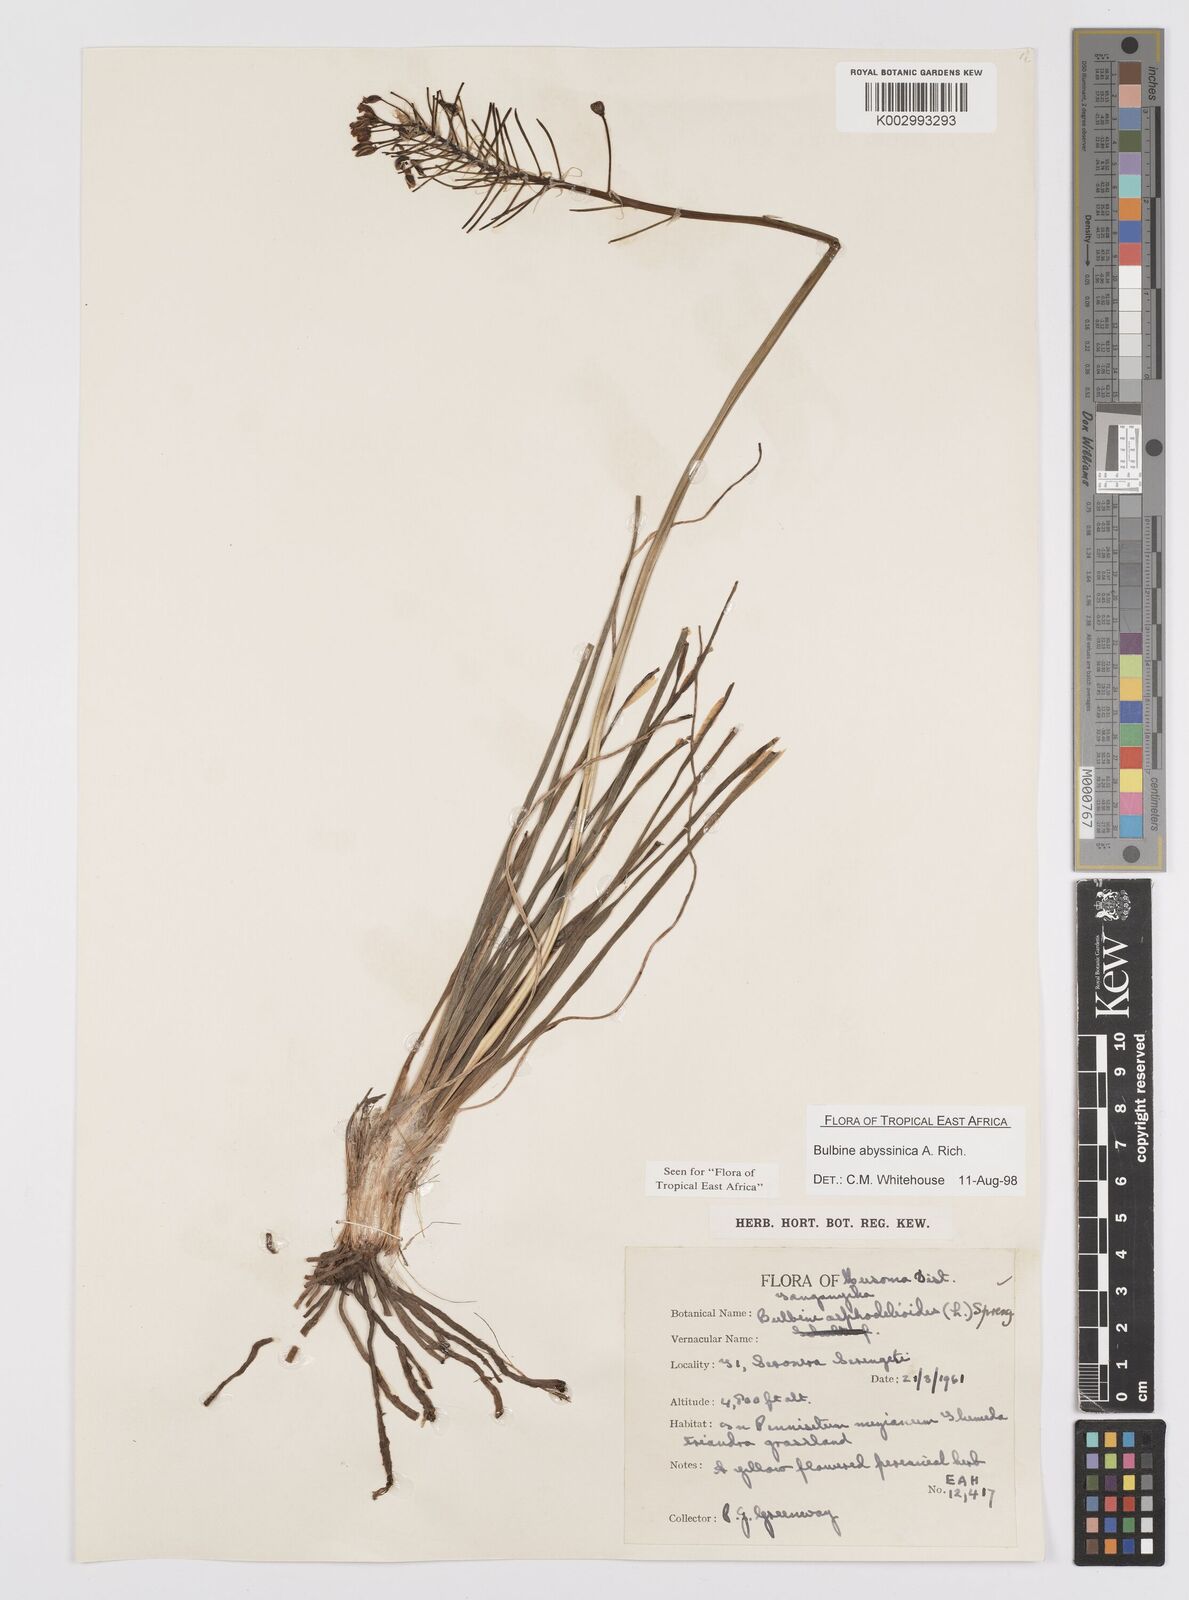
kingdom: Plantae
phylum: Tracheophyta
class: Liliopsida
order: Asparagales
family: Asphodelaceae
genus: Bulbine
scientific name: Bulbine abyssinica
